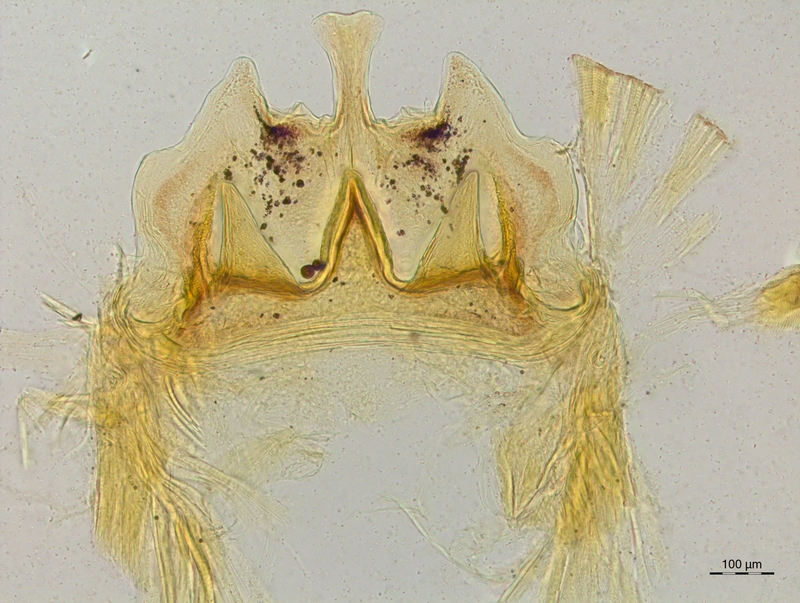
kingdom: Animalia
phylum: Arthropoda
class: Diplopoda
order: Chordeumatida
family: Craspedosomatidae
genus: Craspedosoma
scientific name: Craspedosoma rawlinsii
